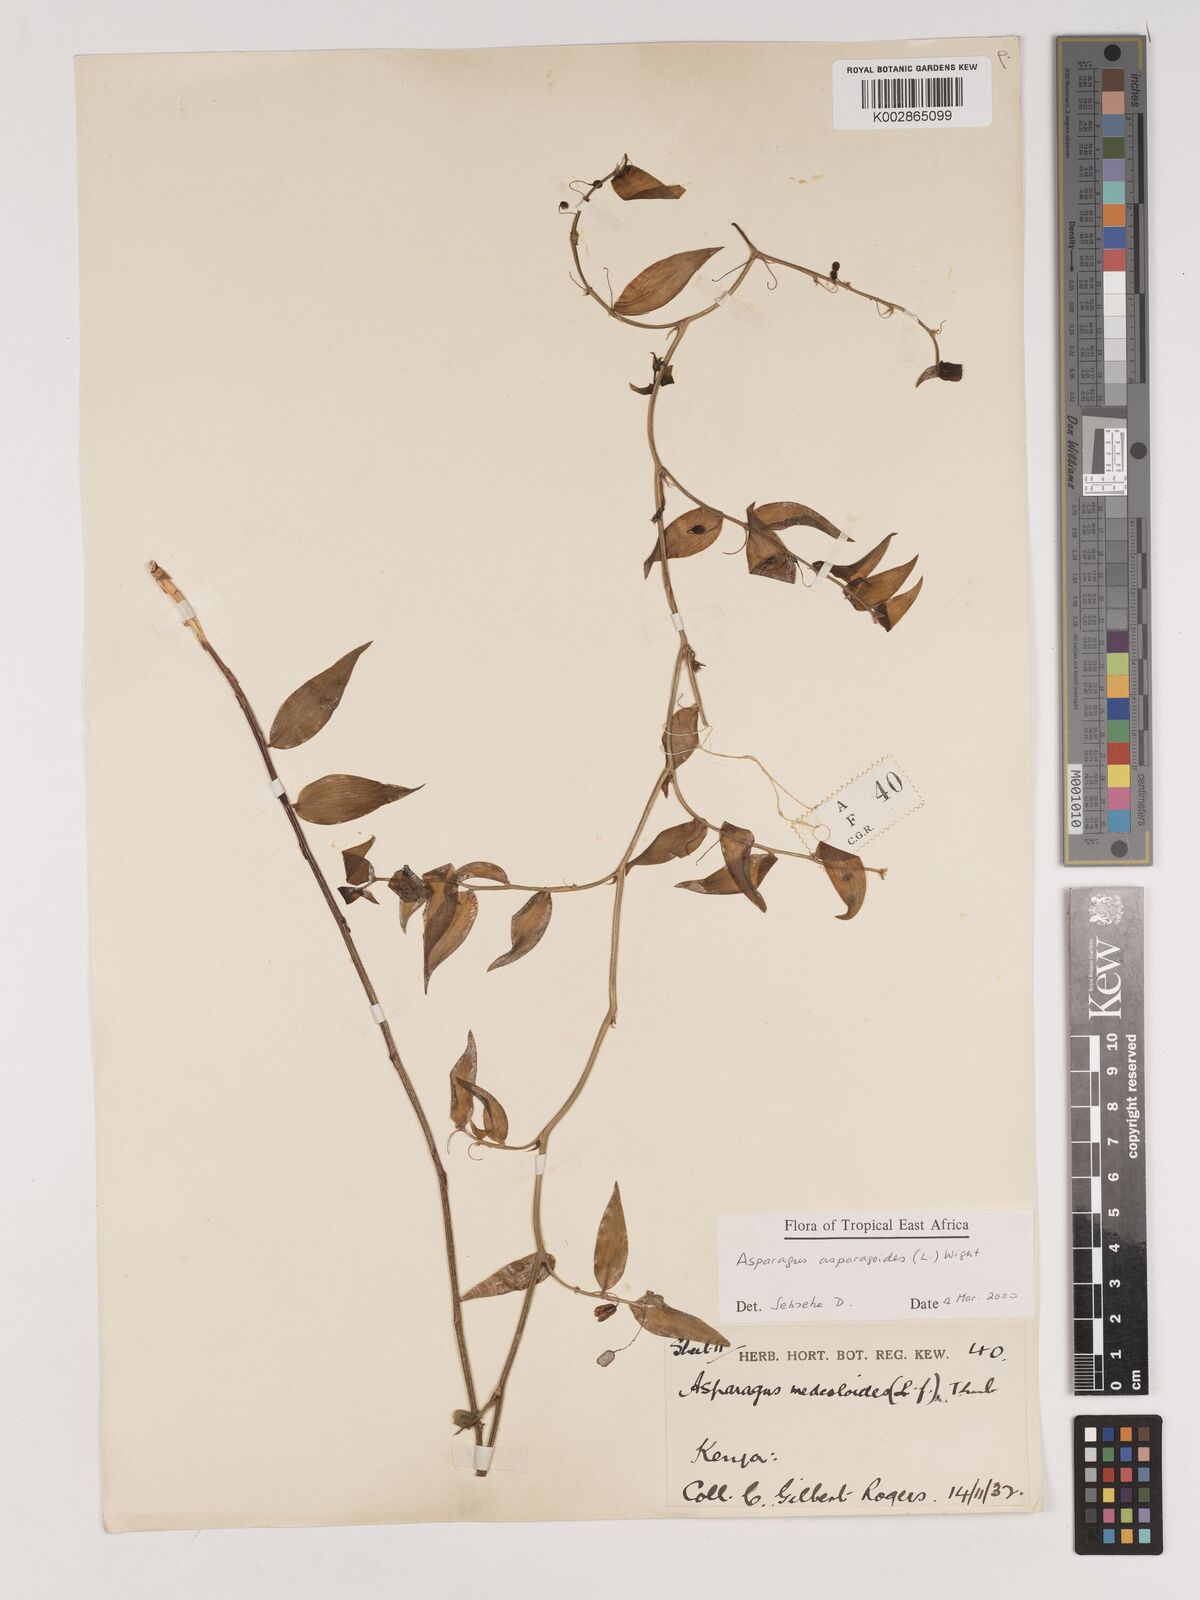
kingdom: Plantae
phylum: Tracheophyta
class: Liliopsida
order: Asparagales
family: Asparagaceae
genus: Asparagus
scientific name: Asparagus asparagoides
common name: African asparagus fern
